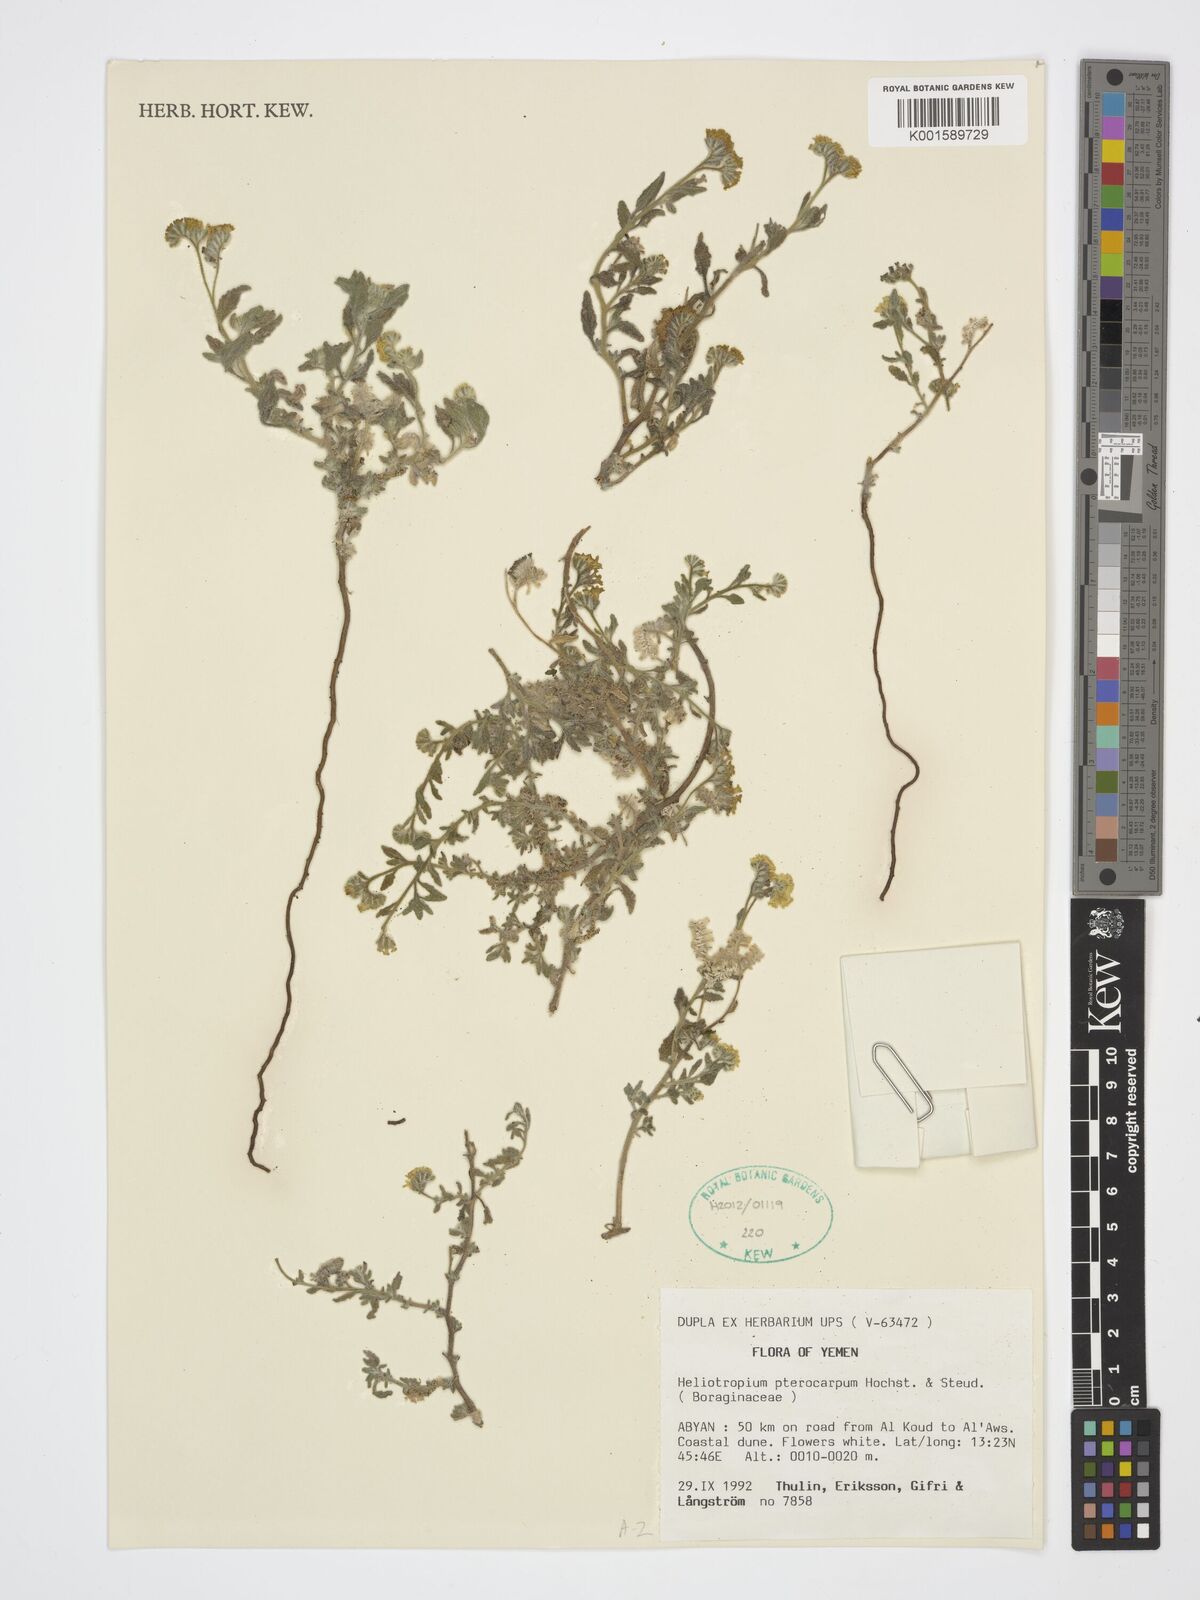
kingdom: Plantae
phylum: Tracheophyta
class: Magnoliopsida
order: Boraginales
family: Heliotropiaceae
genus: Heliotropium
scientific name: Heliotropium pterocarpum
